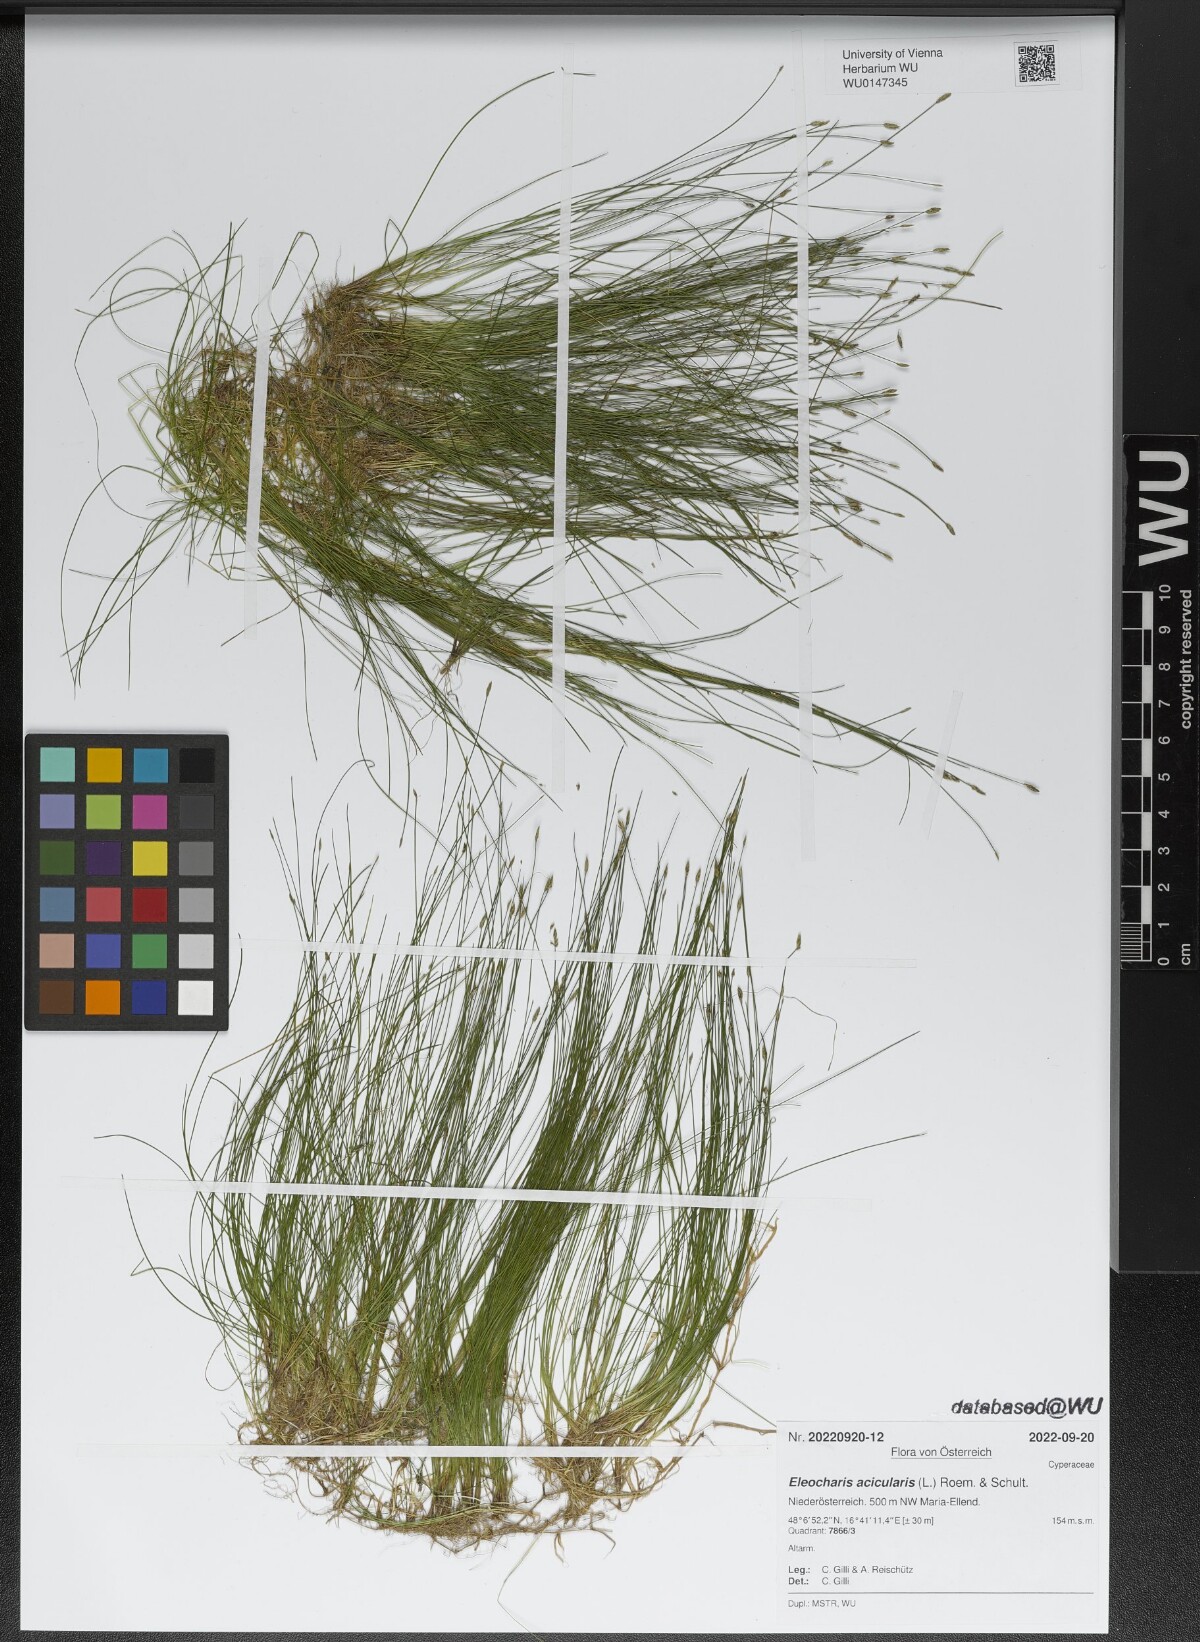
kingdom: Plantae
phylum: Tracheophyta
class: Liliopsida
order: Poales
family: Cyperaceae
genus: Eleocharis
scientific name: Eleocharis acicularis
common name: Needle spike-rush
